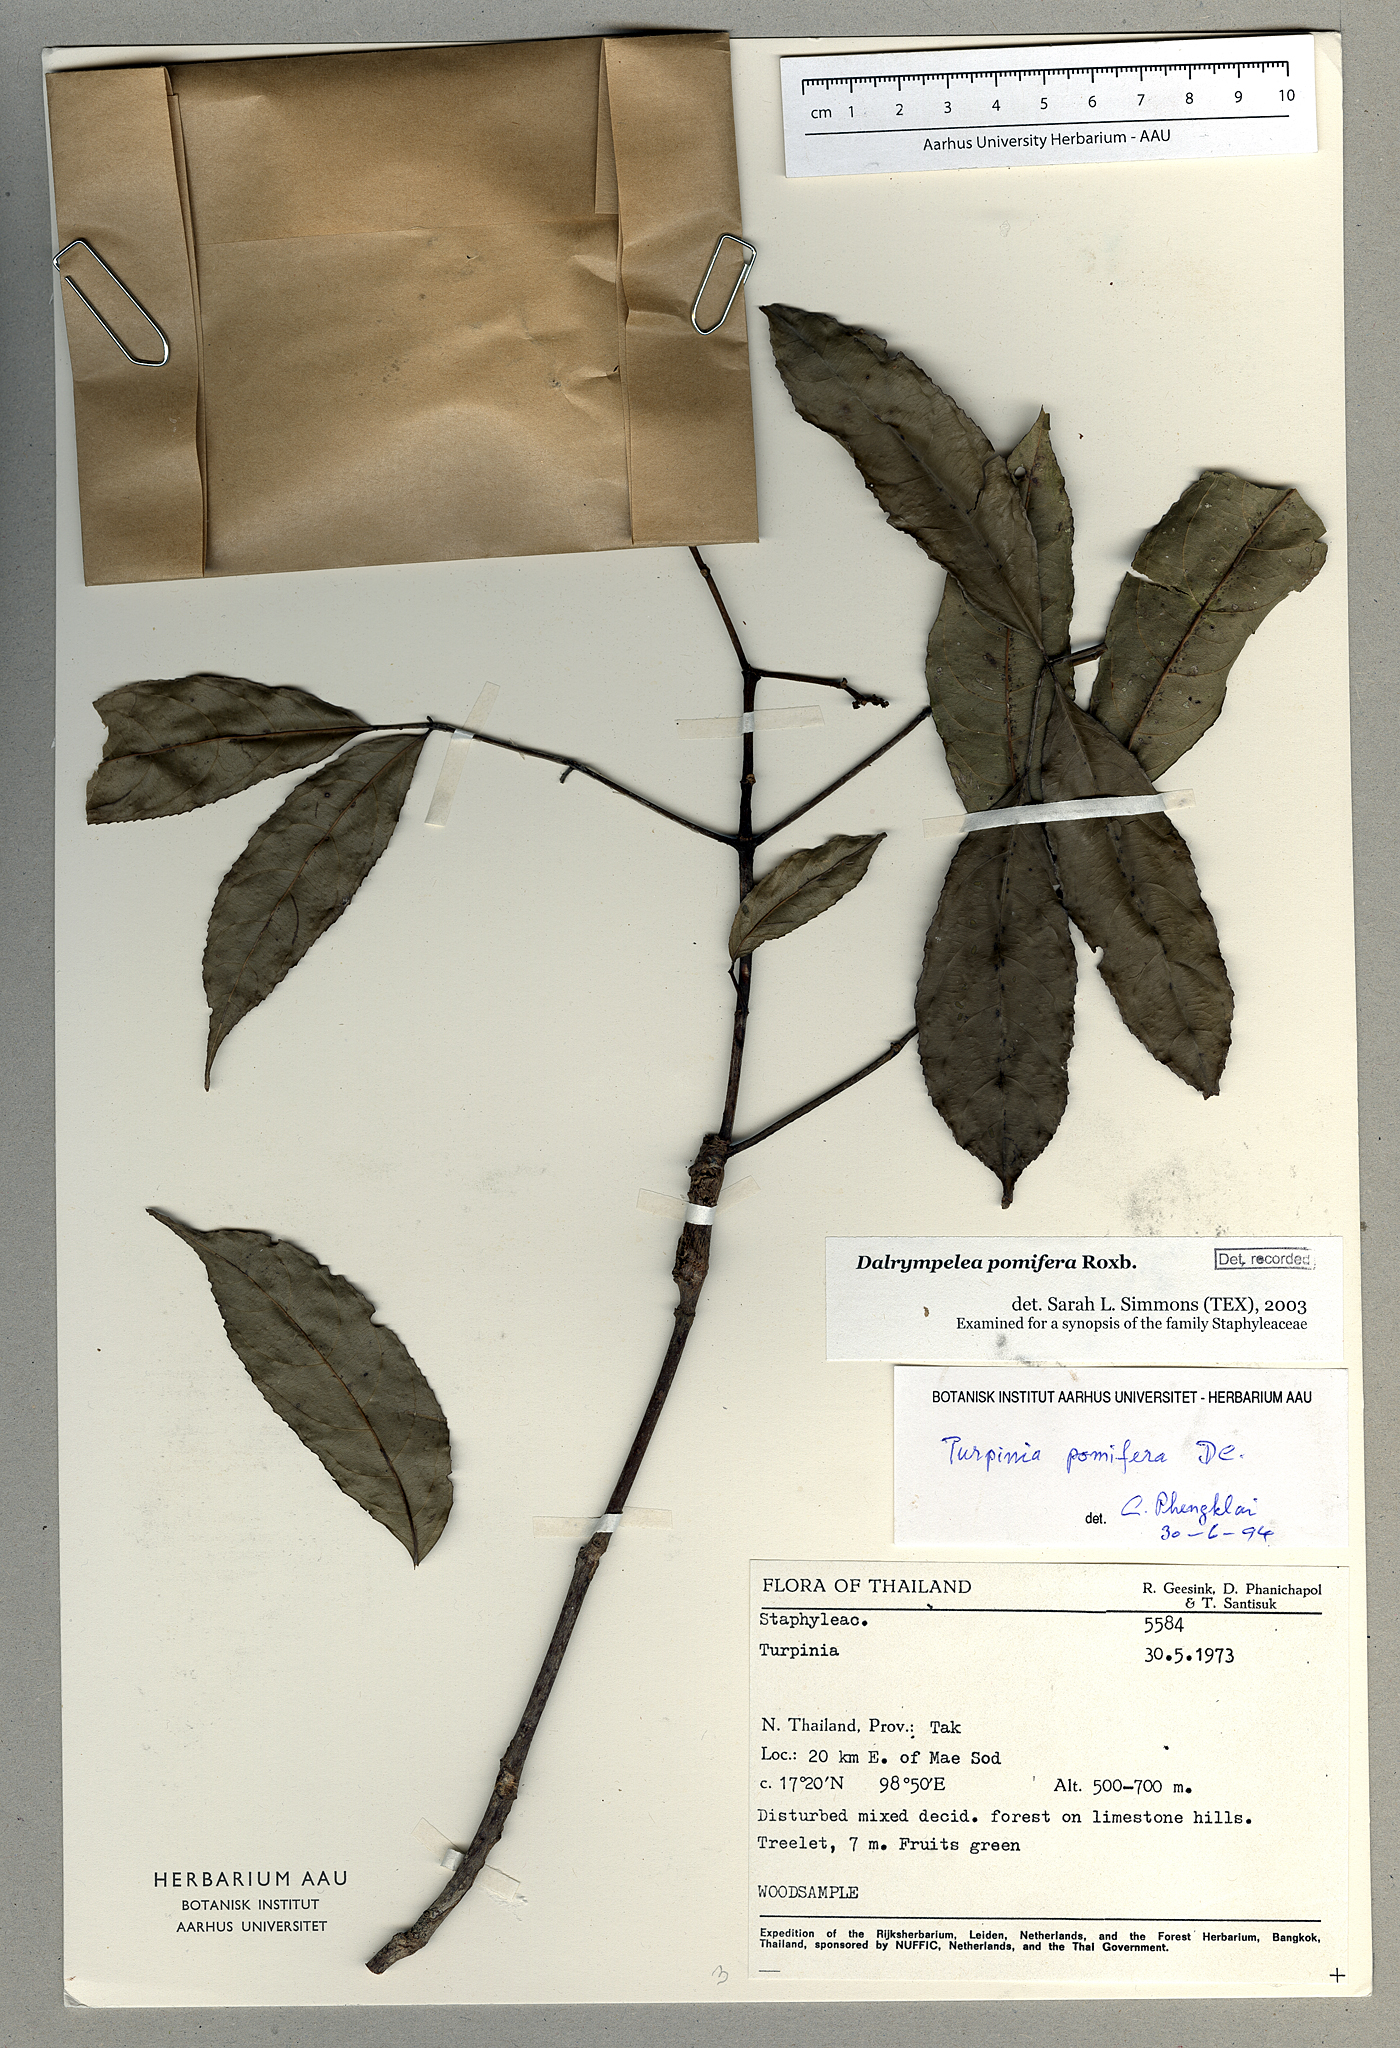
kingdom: Plantae
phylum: Tracheophyta
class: Magnoliopsida
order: Crossosomatales
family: Staphyleaceae
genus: Dalrympelea
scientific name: Dalrympelea pomifera
